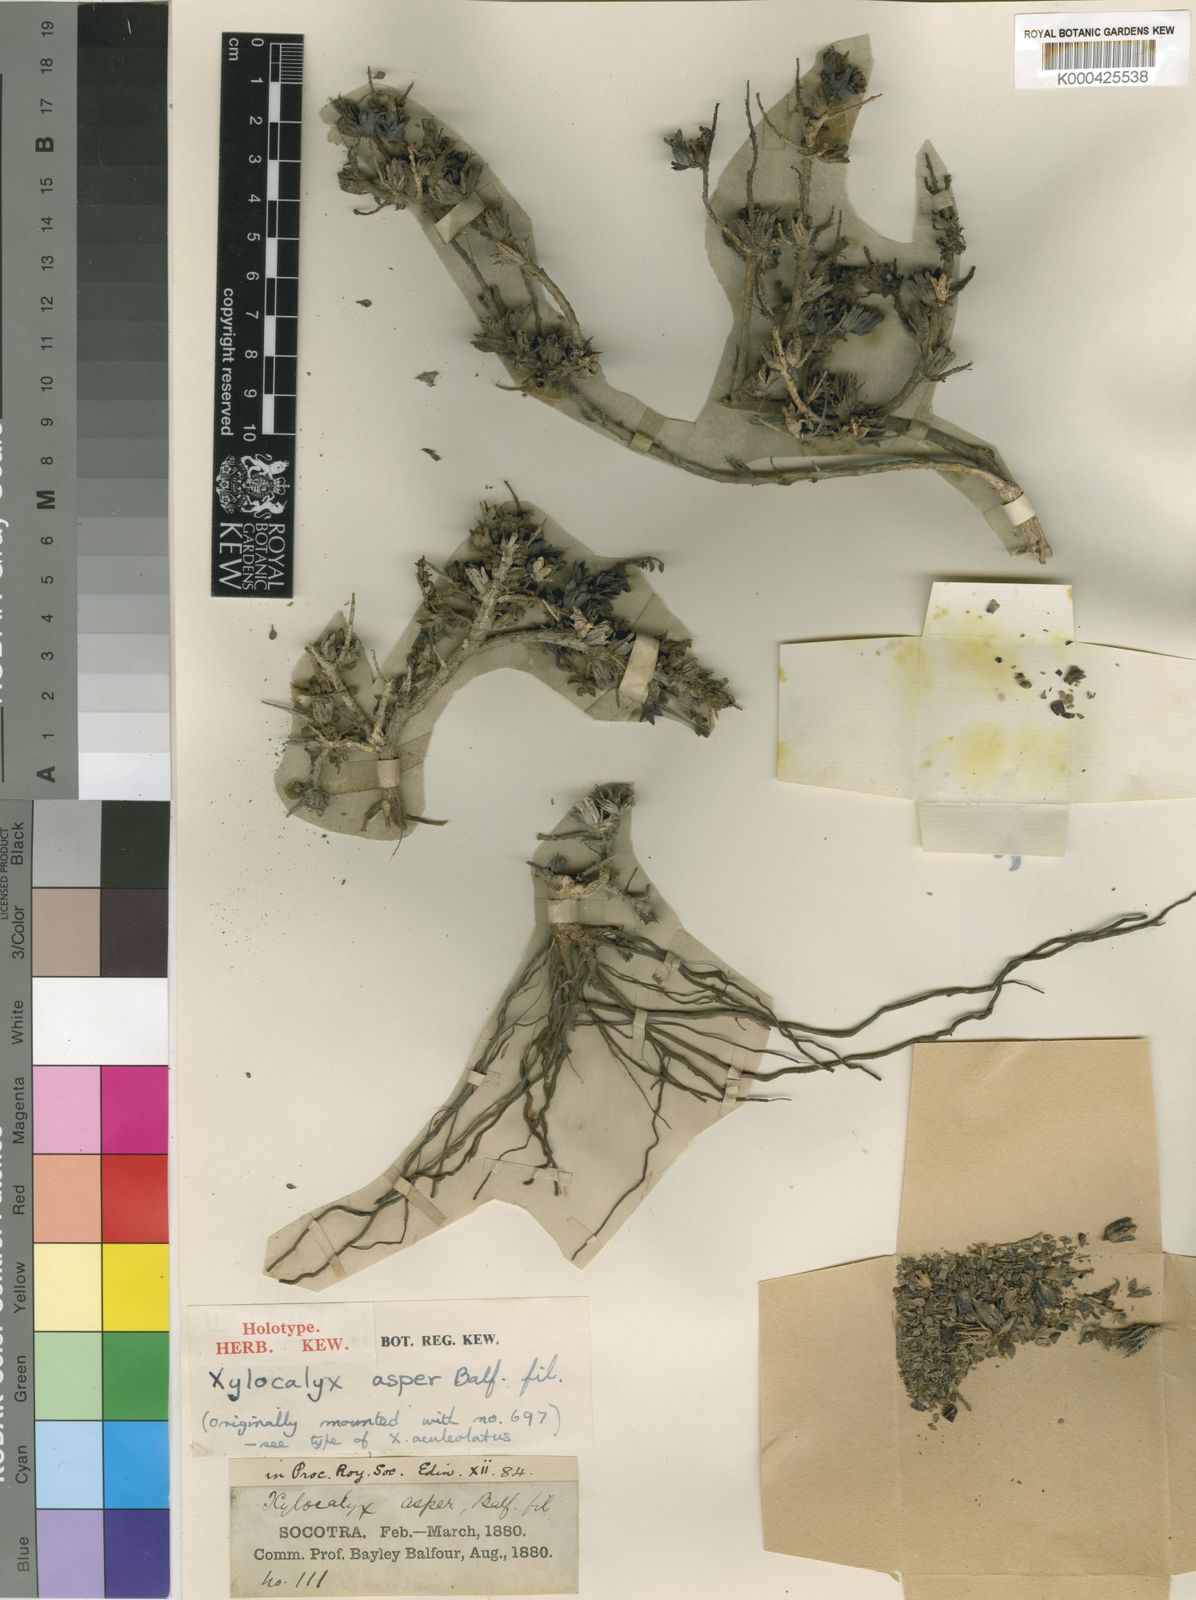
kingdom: Plantae
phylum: Tracheophyta
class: Magnoliopsida
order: Lamiales
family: Orobanchaceae
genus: Xylocalyx
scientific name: Xylocalyx asper
